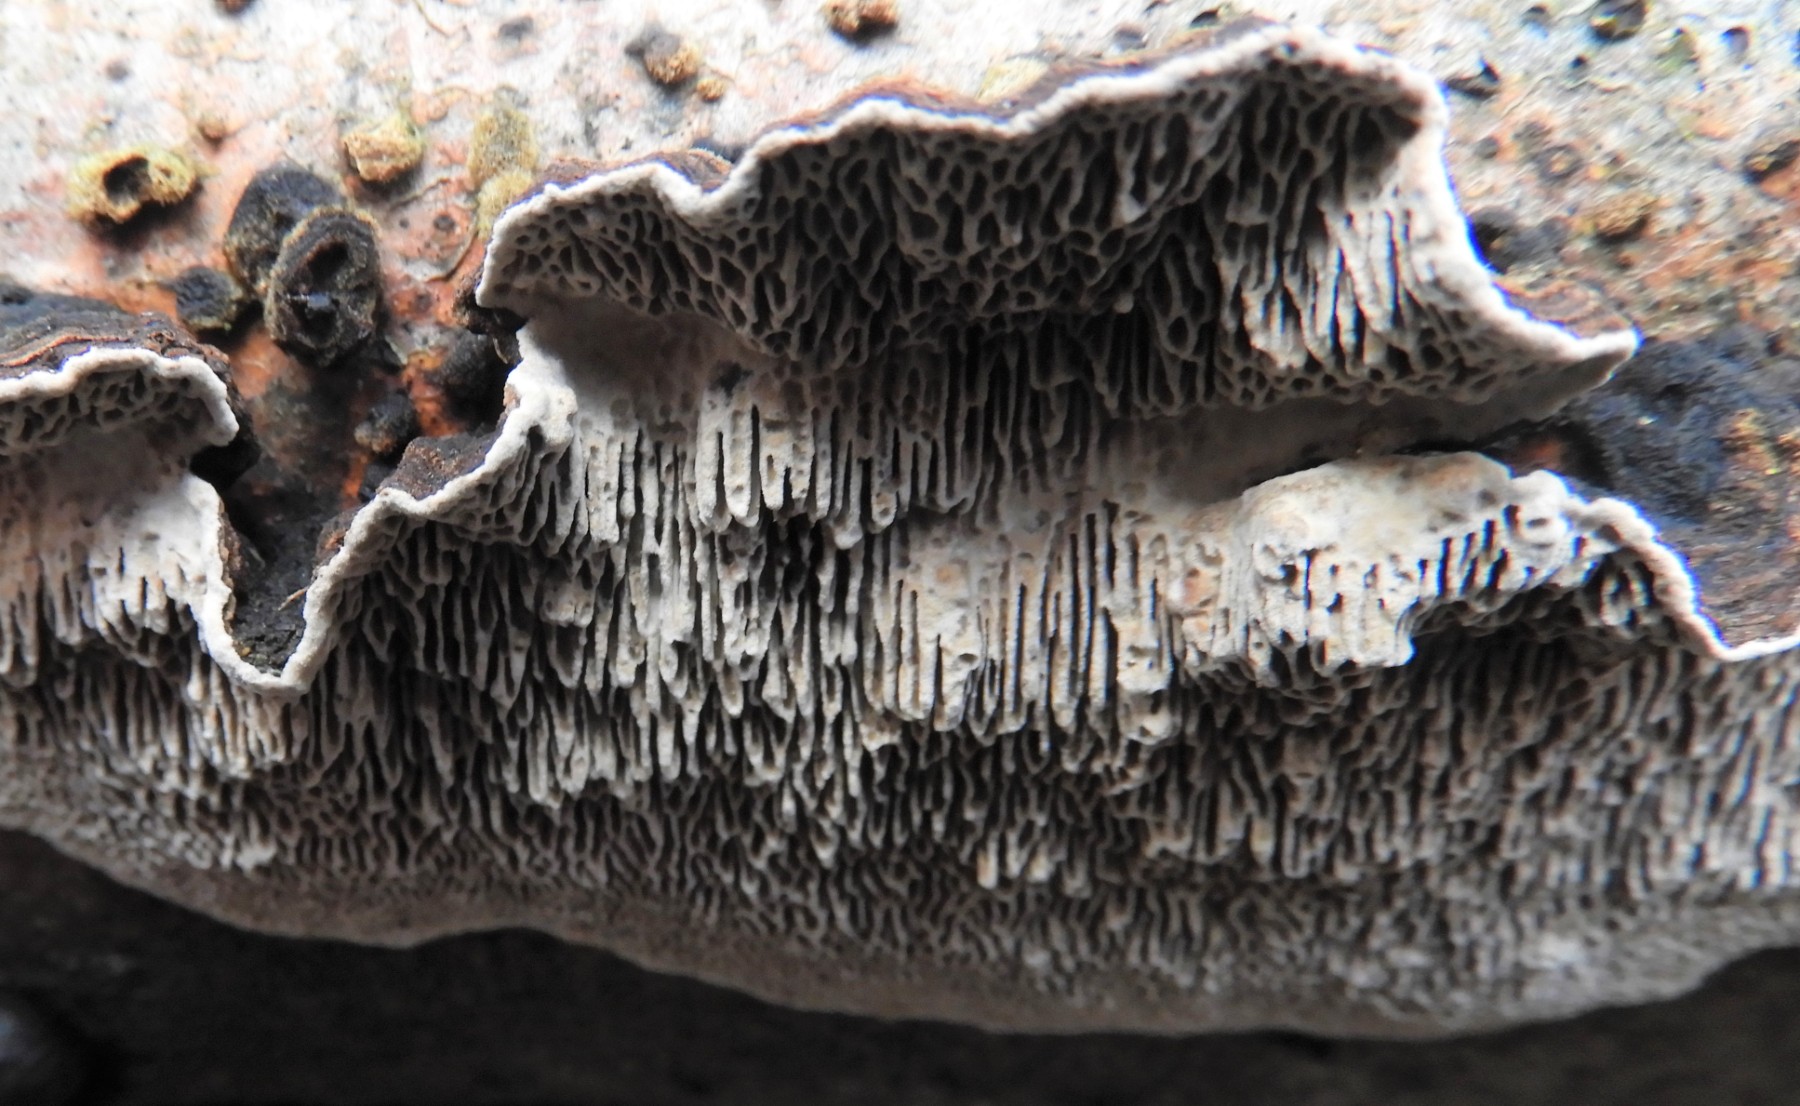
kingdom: Fungi
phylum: Basidiomycota
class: Agaricomycetes
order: Polyporales
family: Polyporaceae
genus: Podofomes
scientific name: Podofomes mollis
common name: blød begporesvamp
